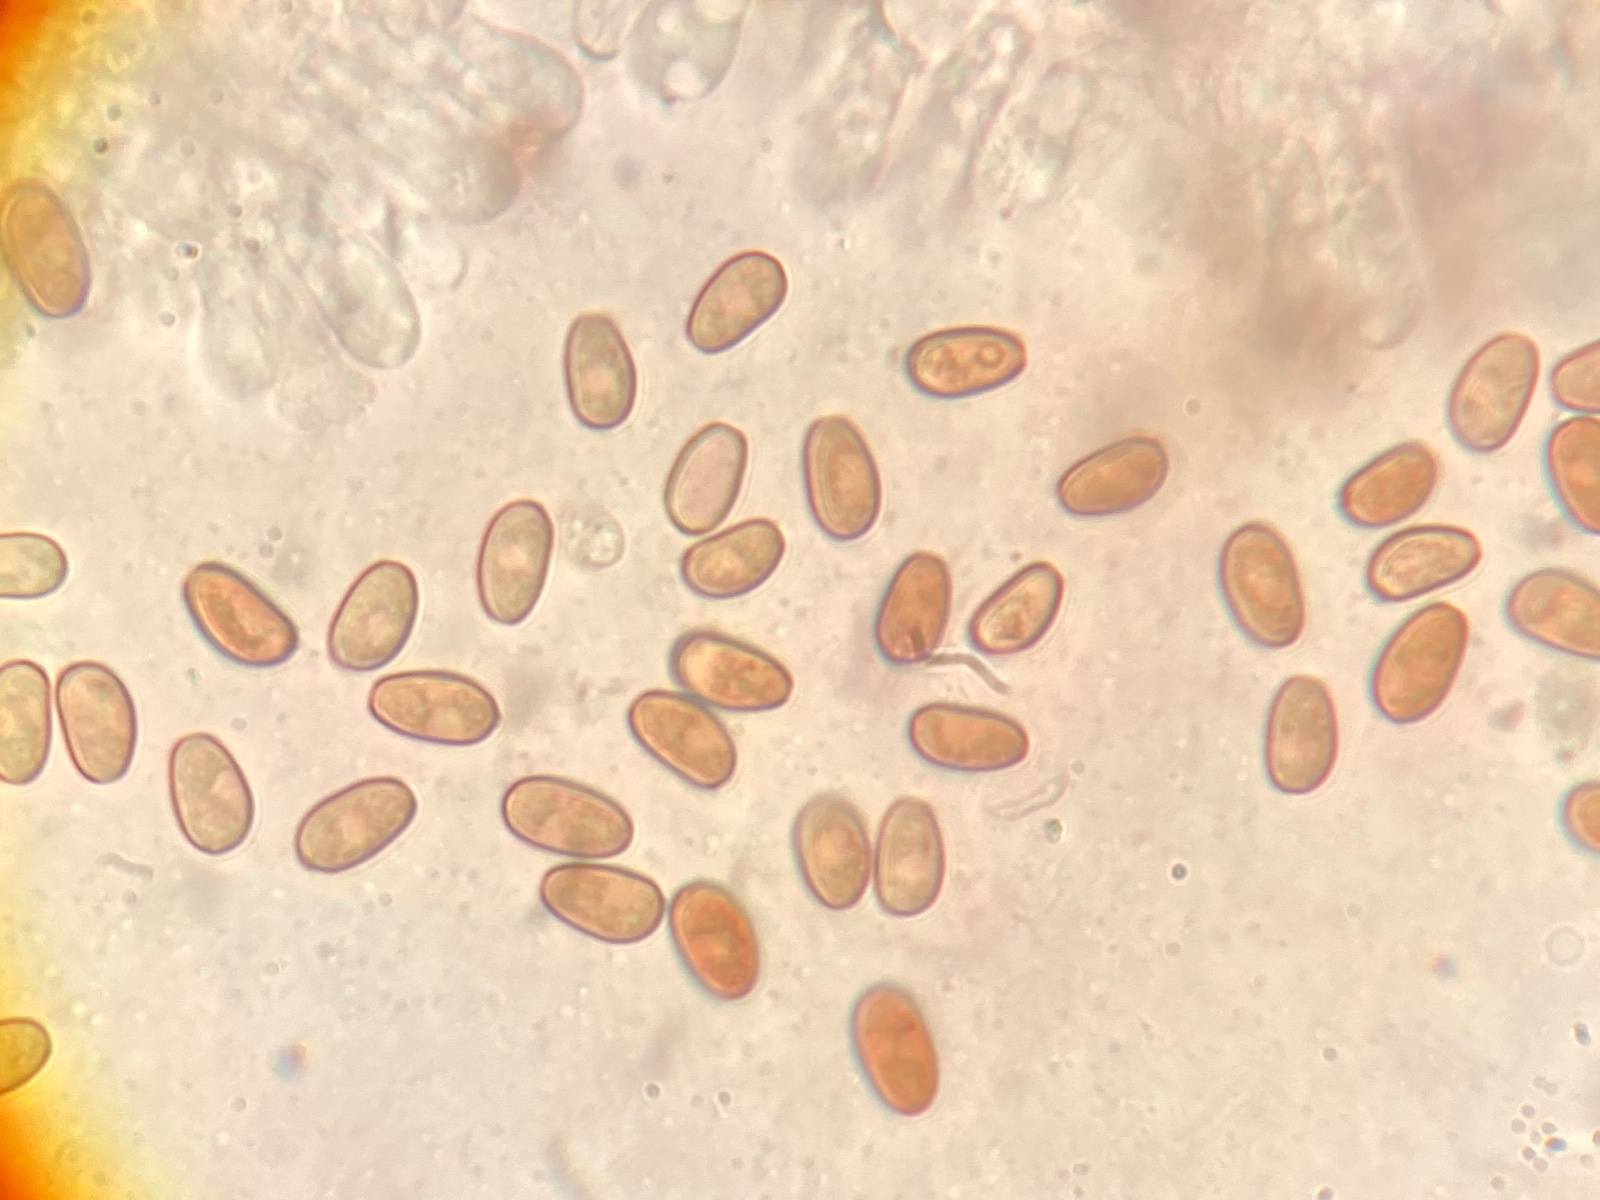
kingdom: Fungi
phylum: Basidiomycota
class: Agaricomycetes
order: Agaricales
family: Psathyrellaceae
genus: Psathyrella
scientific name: Psathyrella
